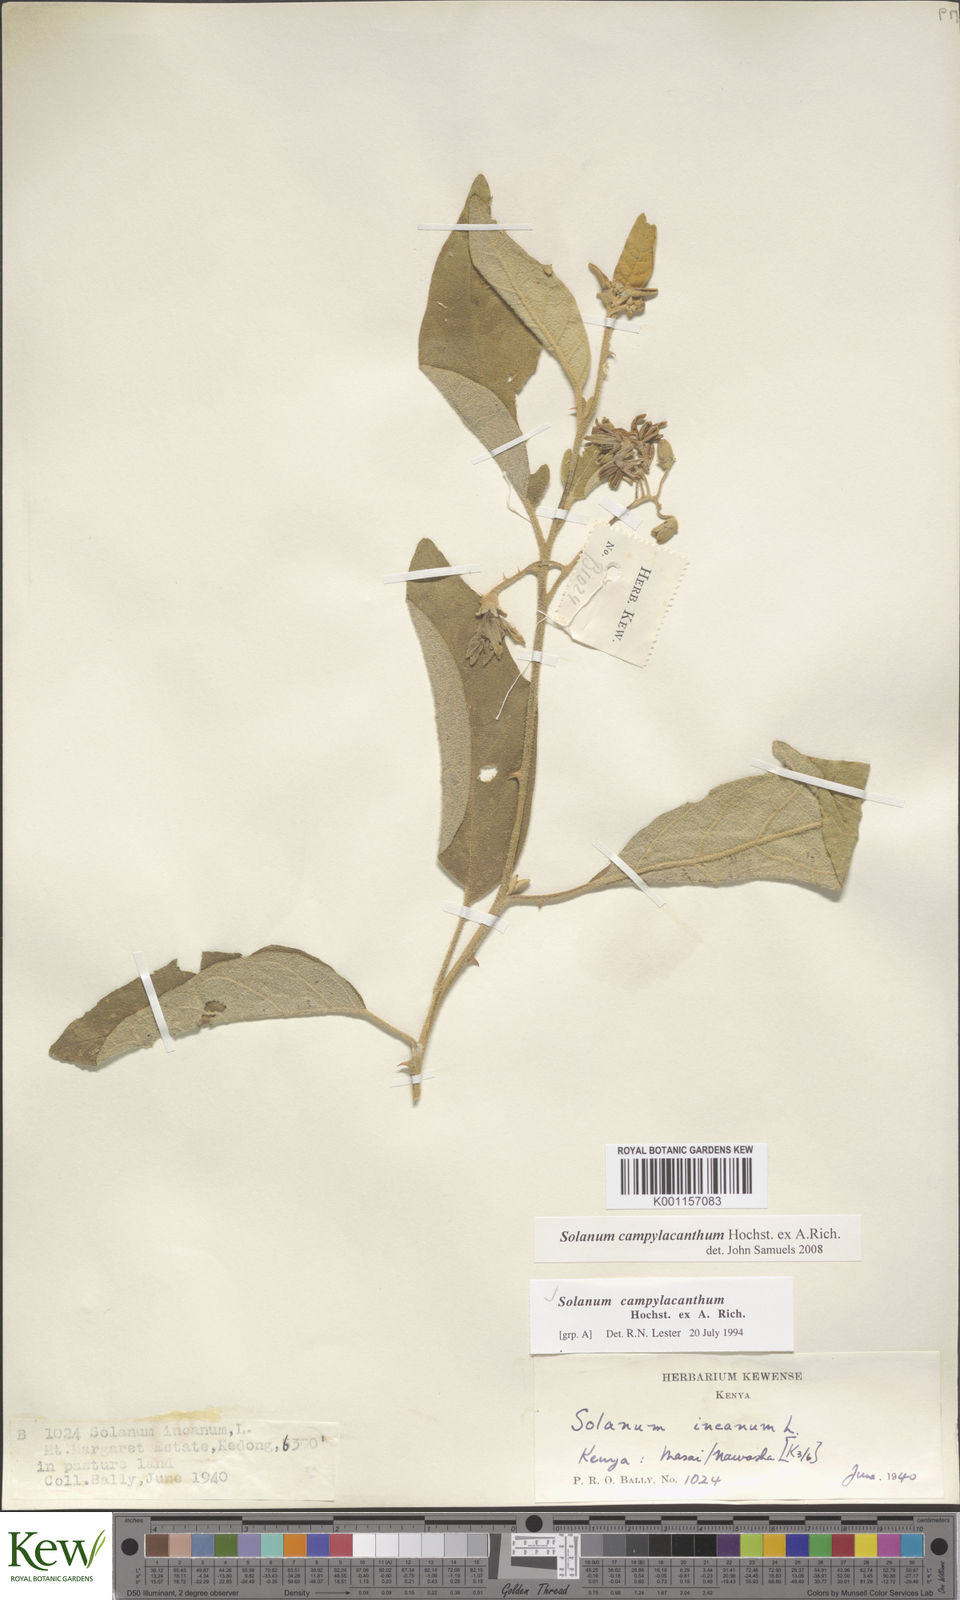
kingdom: Plantae
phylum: Tracheophyta
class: Magnoliopsida
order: Solanales
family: Solanaceae
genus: Solanum
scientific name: Solanum campylacanthum
